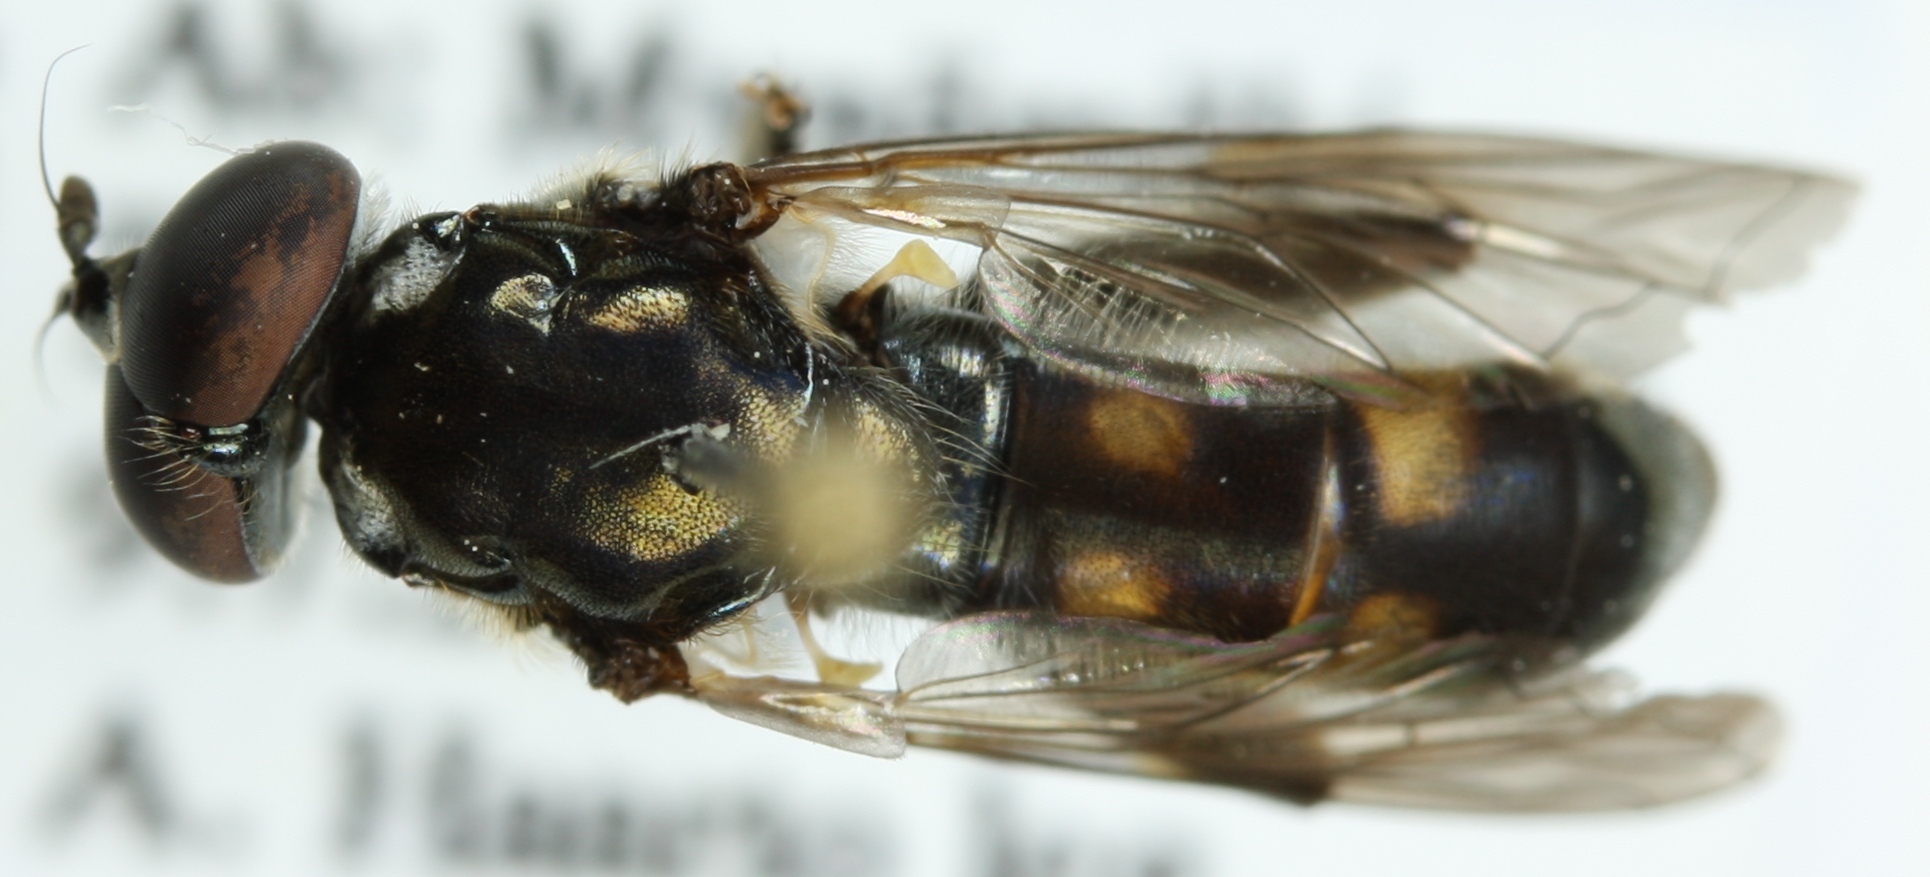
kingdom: Animalia
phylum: Arthropoda
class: Insecta
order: Diptera
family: Syrphidae
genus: Xylota
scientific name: Xylota meigeniana
